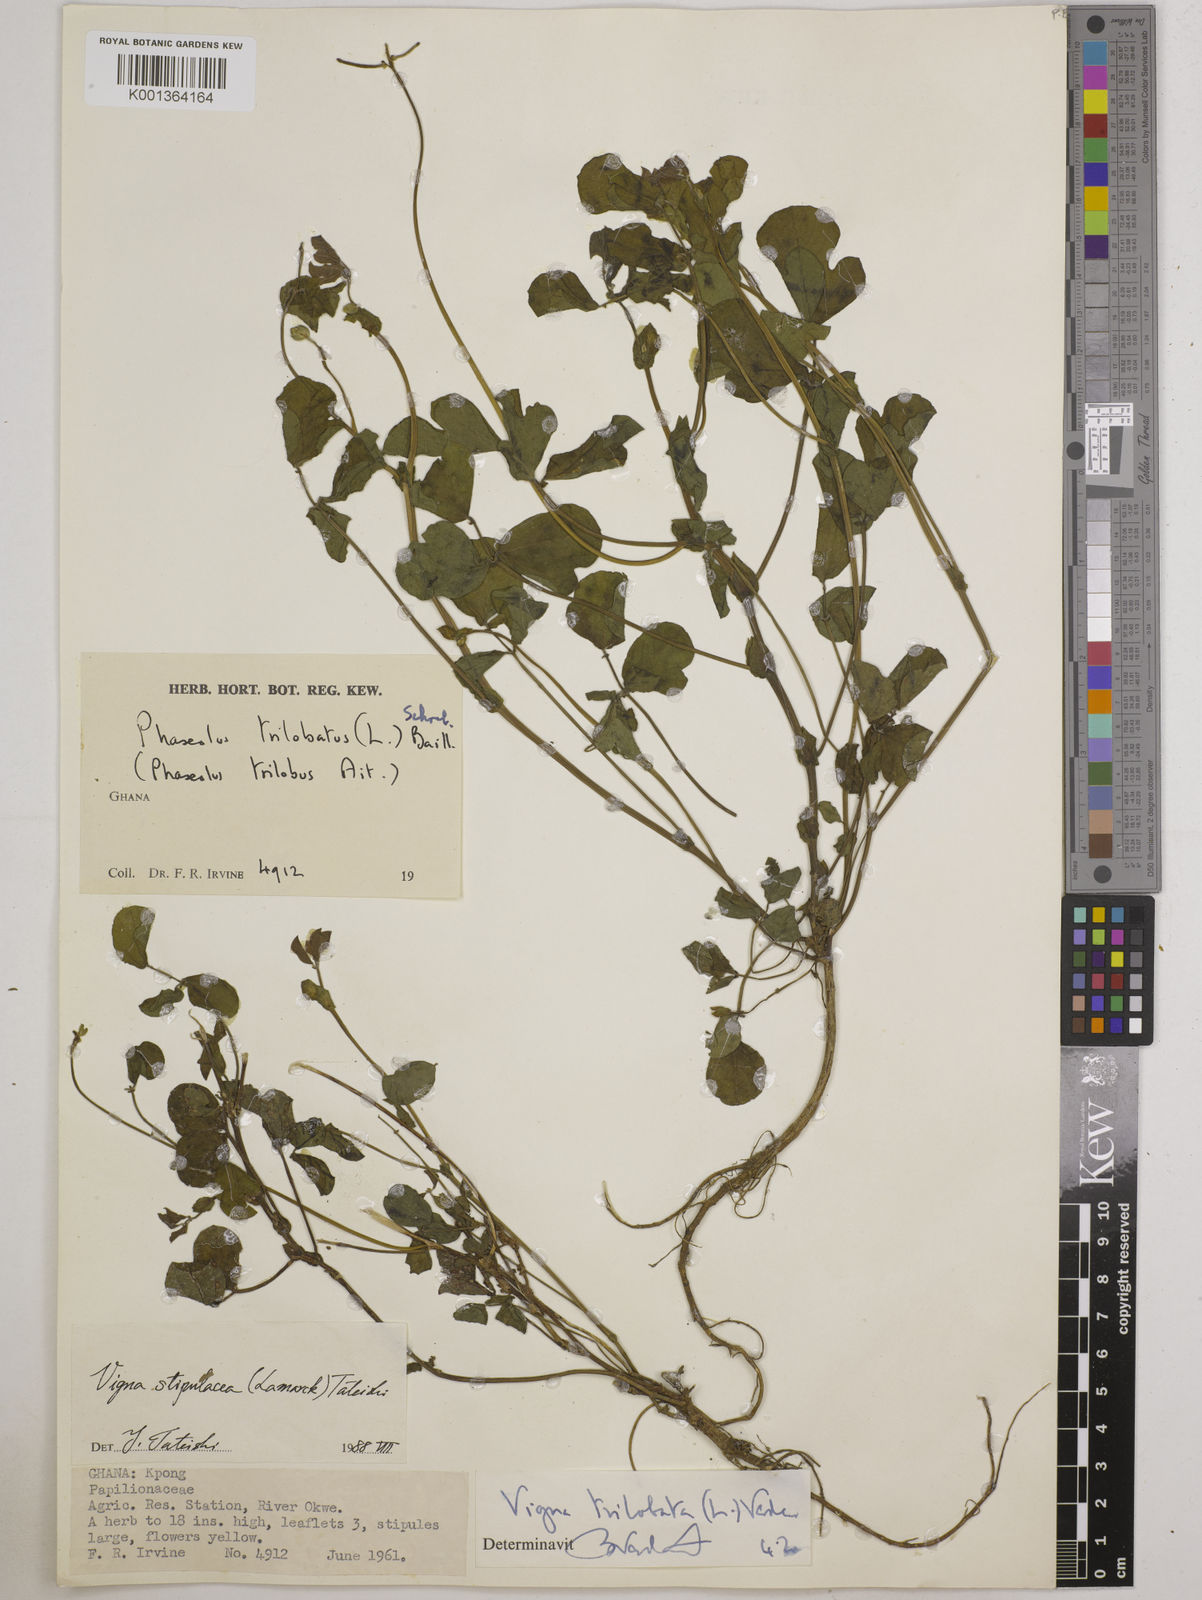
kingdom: Plantae
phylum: Tracheophyta
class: Magnoliopsida
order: Fabales
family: Fabaceae
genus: Vigna
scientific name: Vigna trilobata
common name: Jungli-bean
